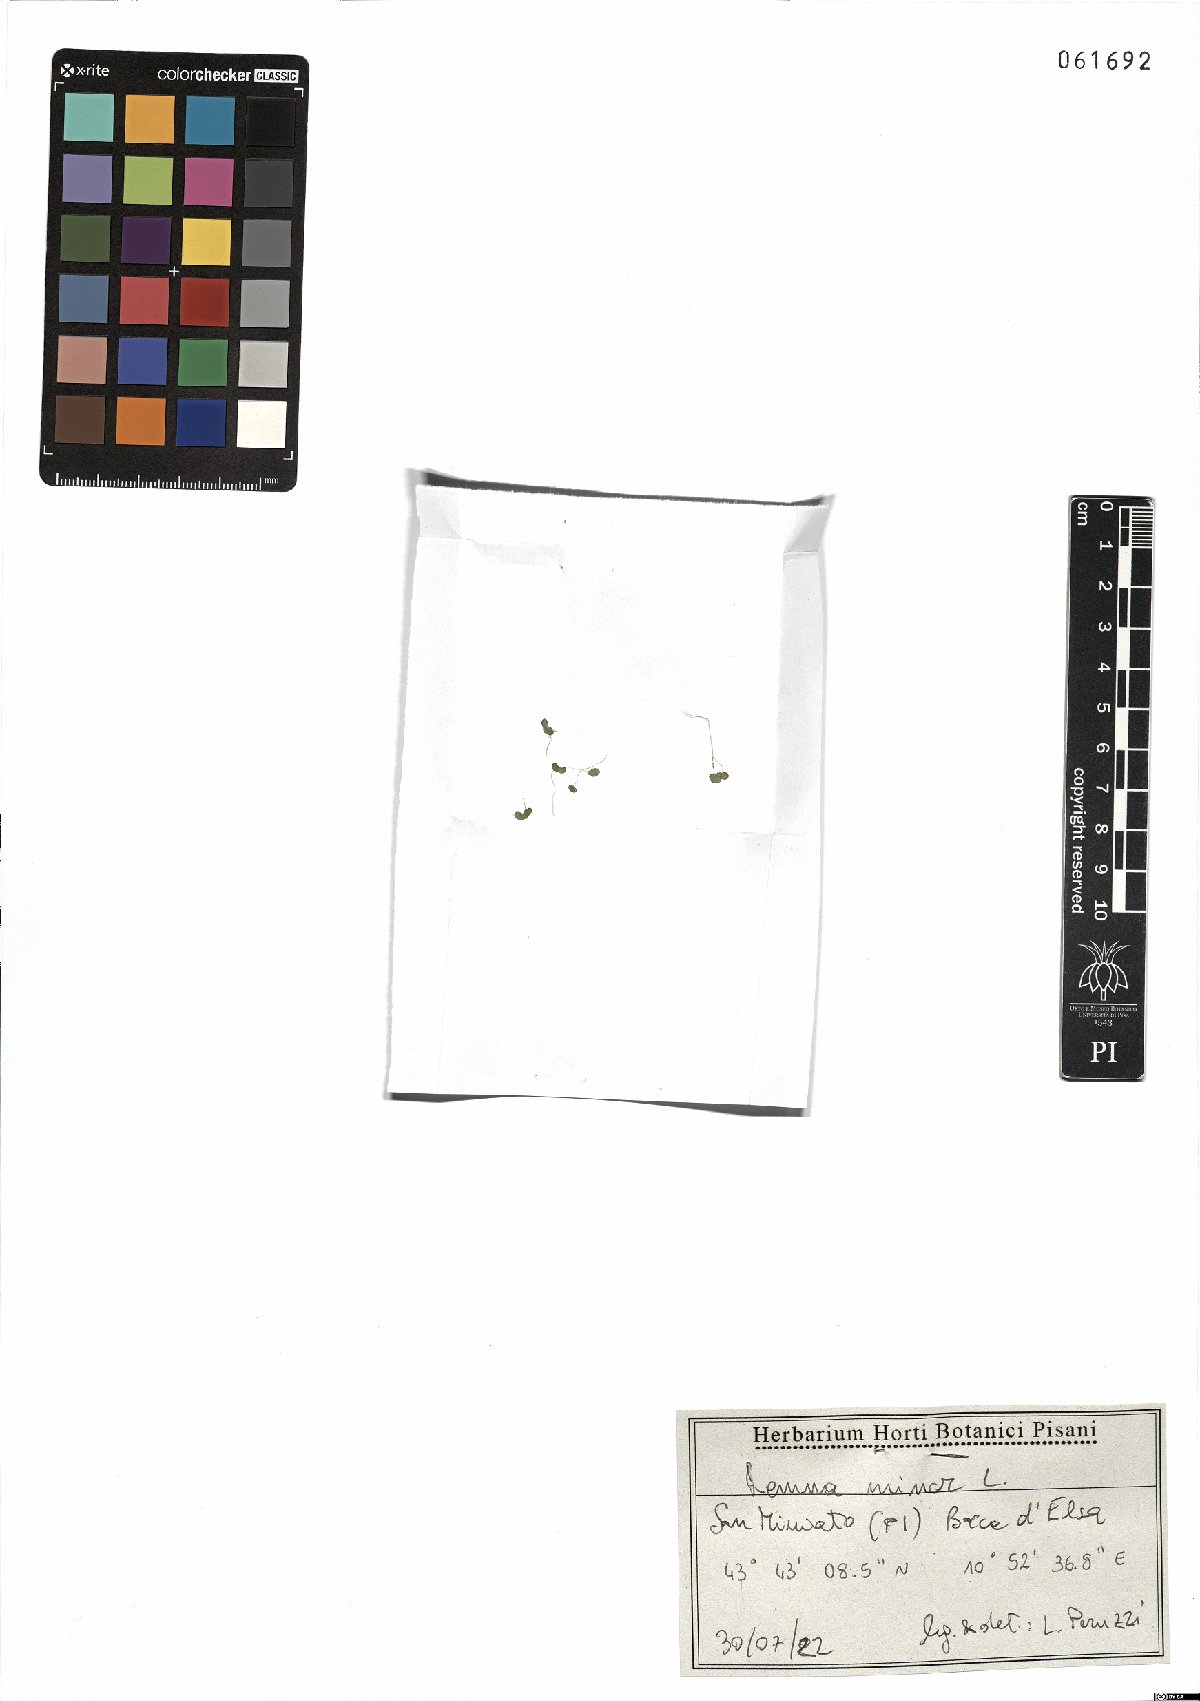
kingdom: Plantae
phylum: Tracheophyta
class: Liliopsida
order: Alismatales
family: Araceae
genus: Lemna
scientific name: Lemna minor
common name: Common duckweed
